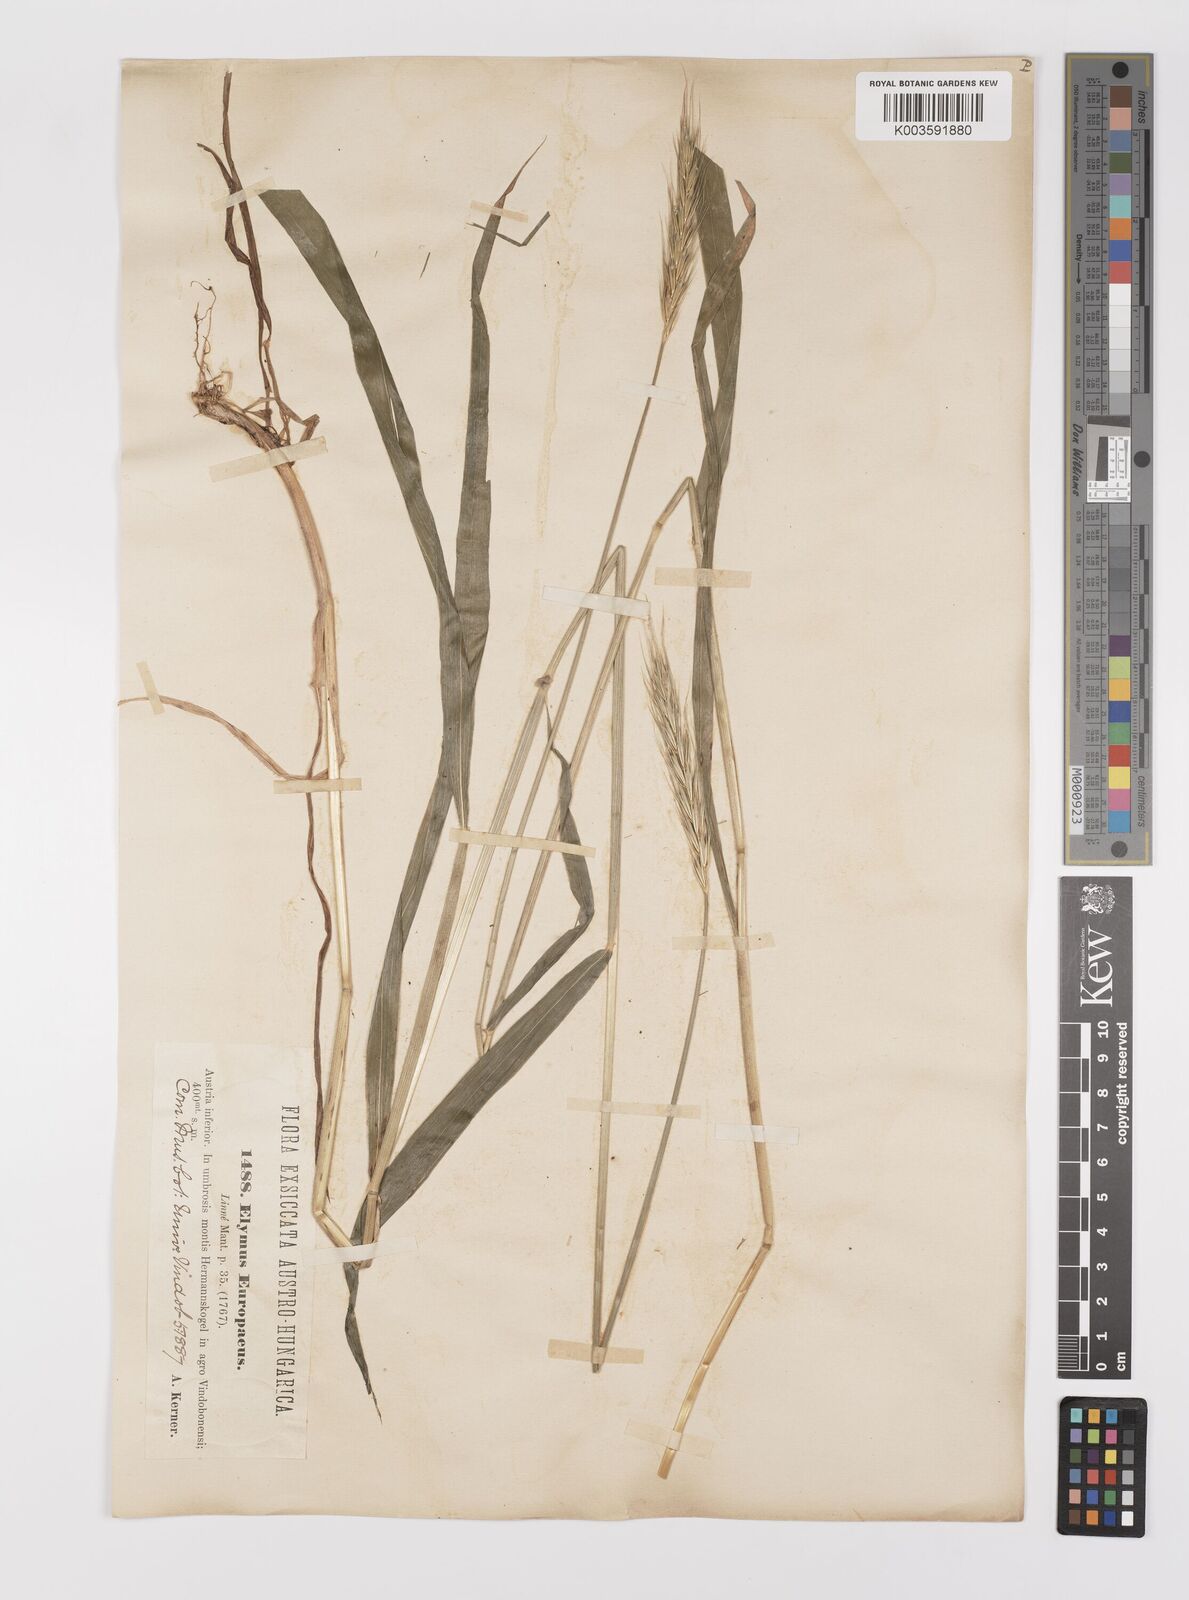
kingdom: Plantae
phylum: Tracheophyta
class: Liliopsida
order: Poales
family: Poaceae
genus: Hordelymus
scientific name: Hordelymus europaeus
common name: Wood-barley
